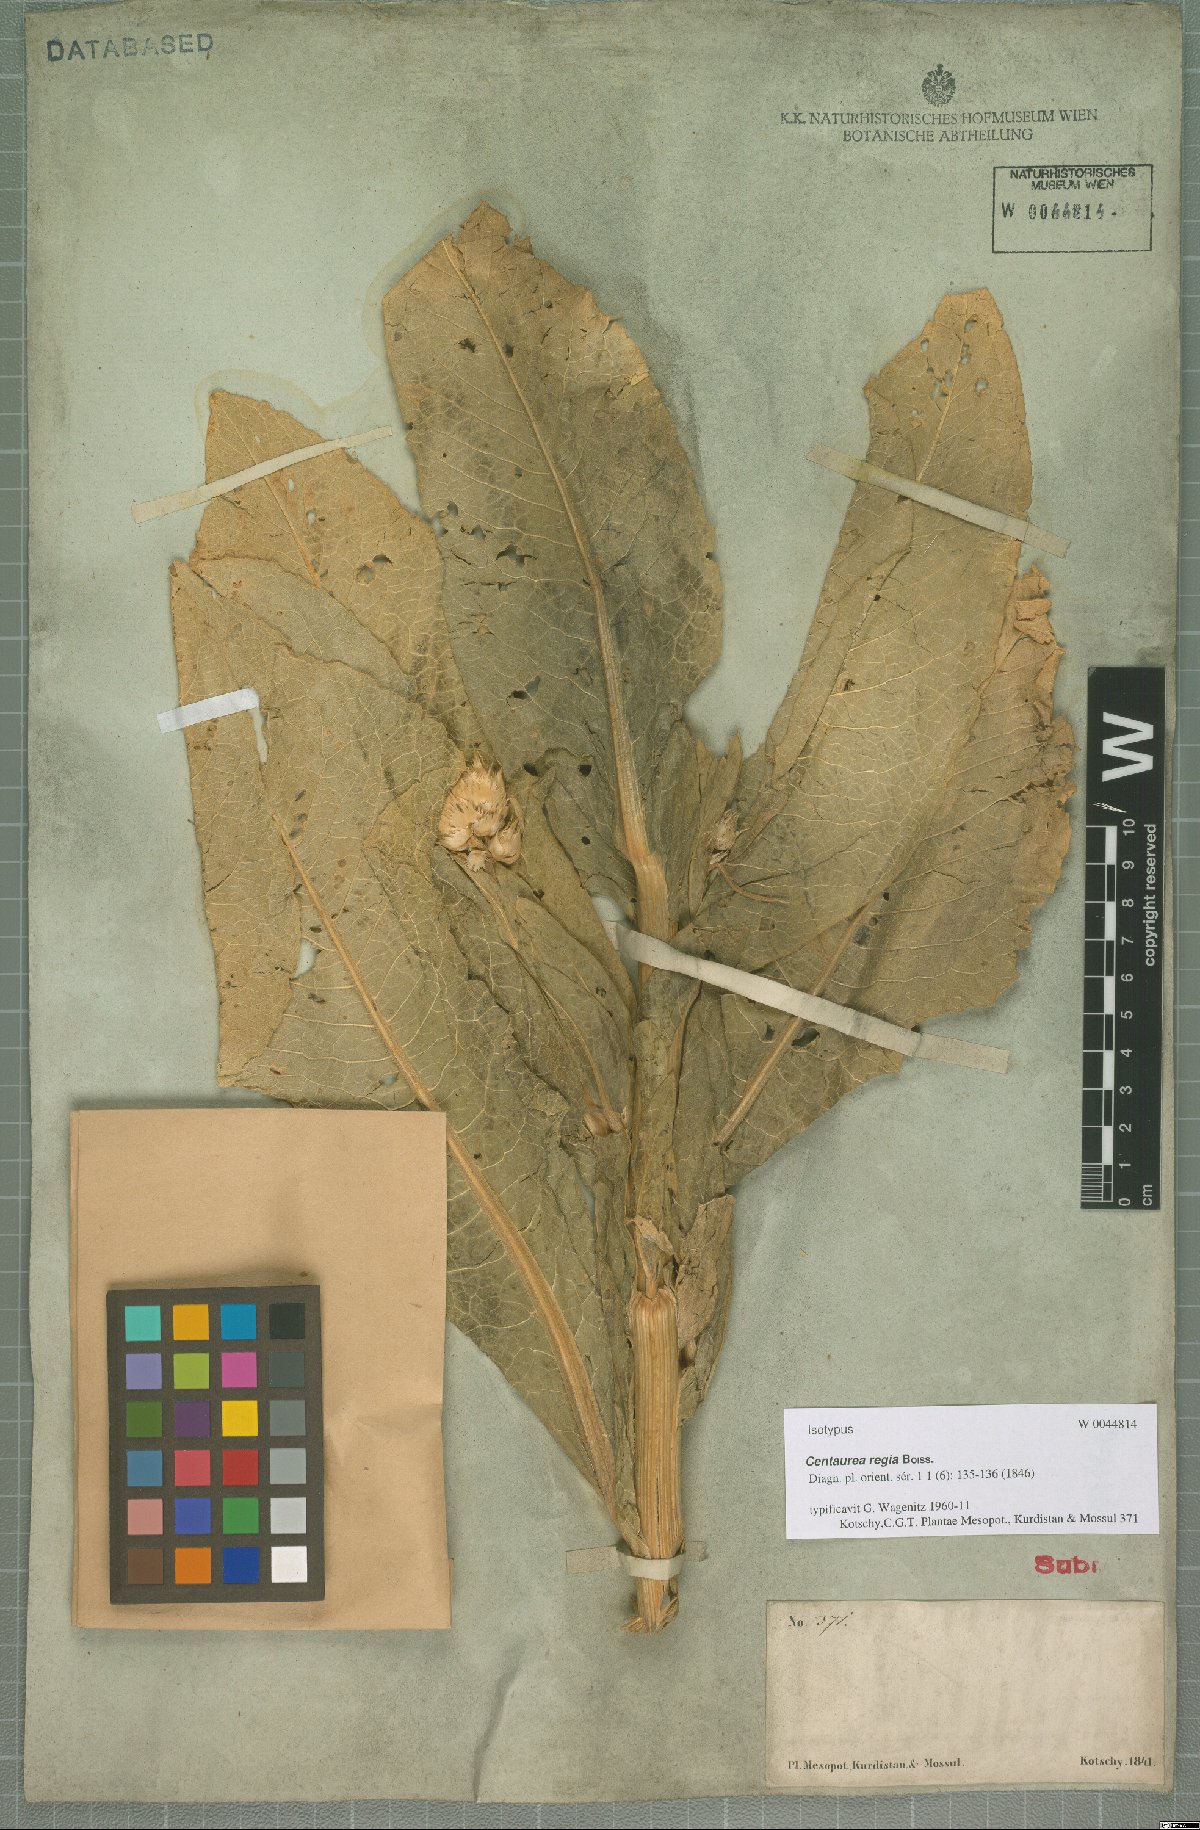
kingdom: Plantae
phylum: Tracheophyta
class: Magnoliopsida
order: Asterales
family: Asteraceae
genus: Centaurea
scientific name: Centaurea regia
